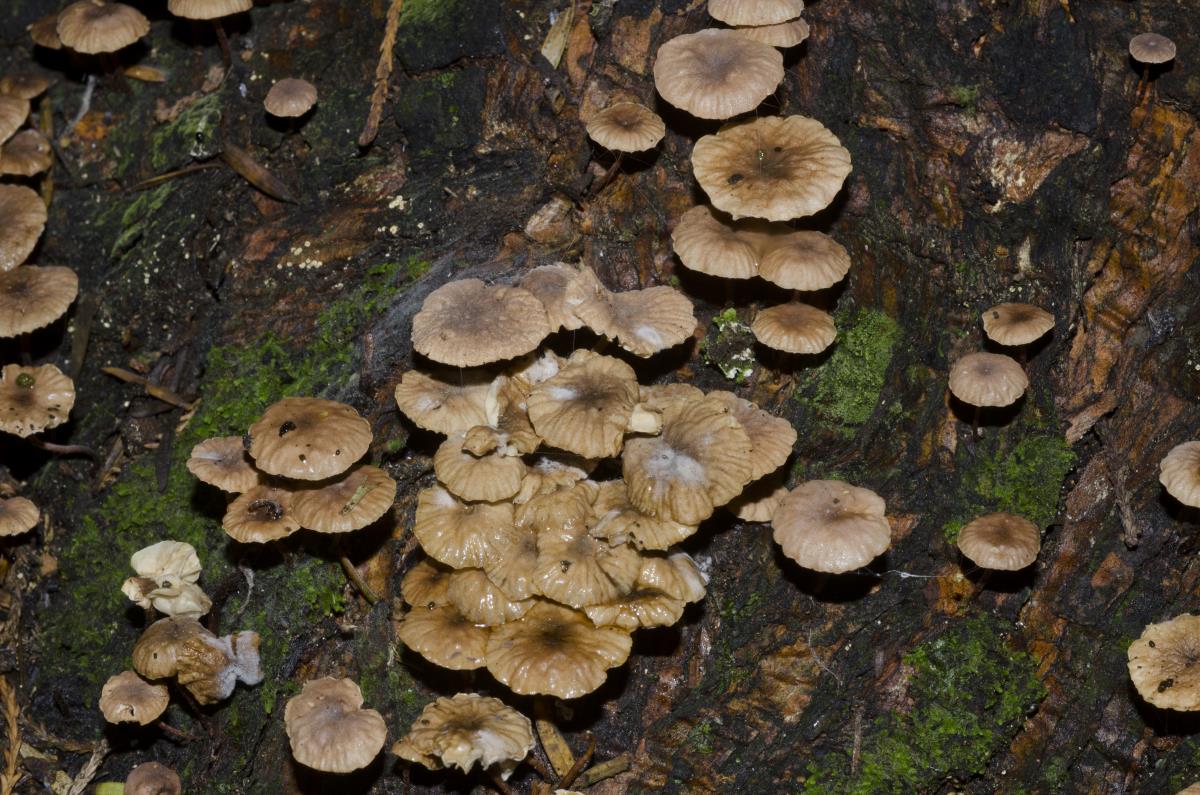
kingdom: Fungi
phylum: Basidiomycota
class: Agaricomycetes
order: Agaricales
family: Omphalotaceae
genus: Mycetinis
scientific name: Mycetinis curraniae
